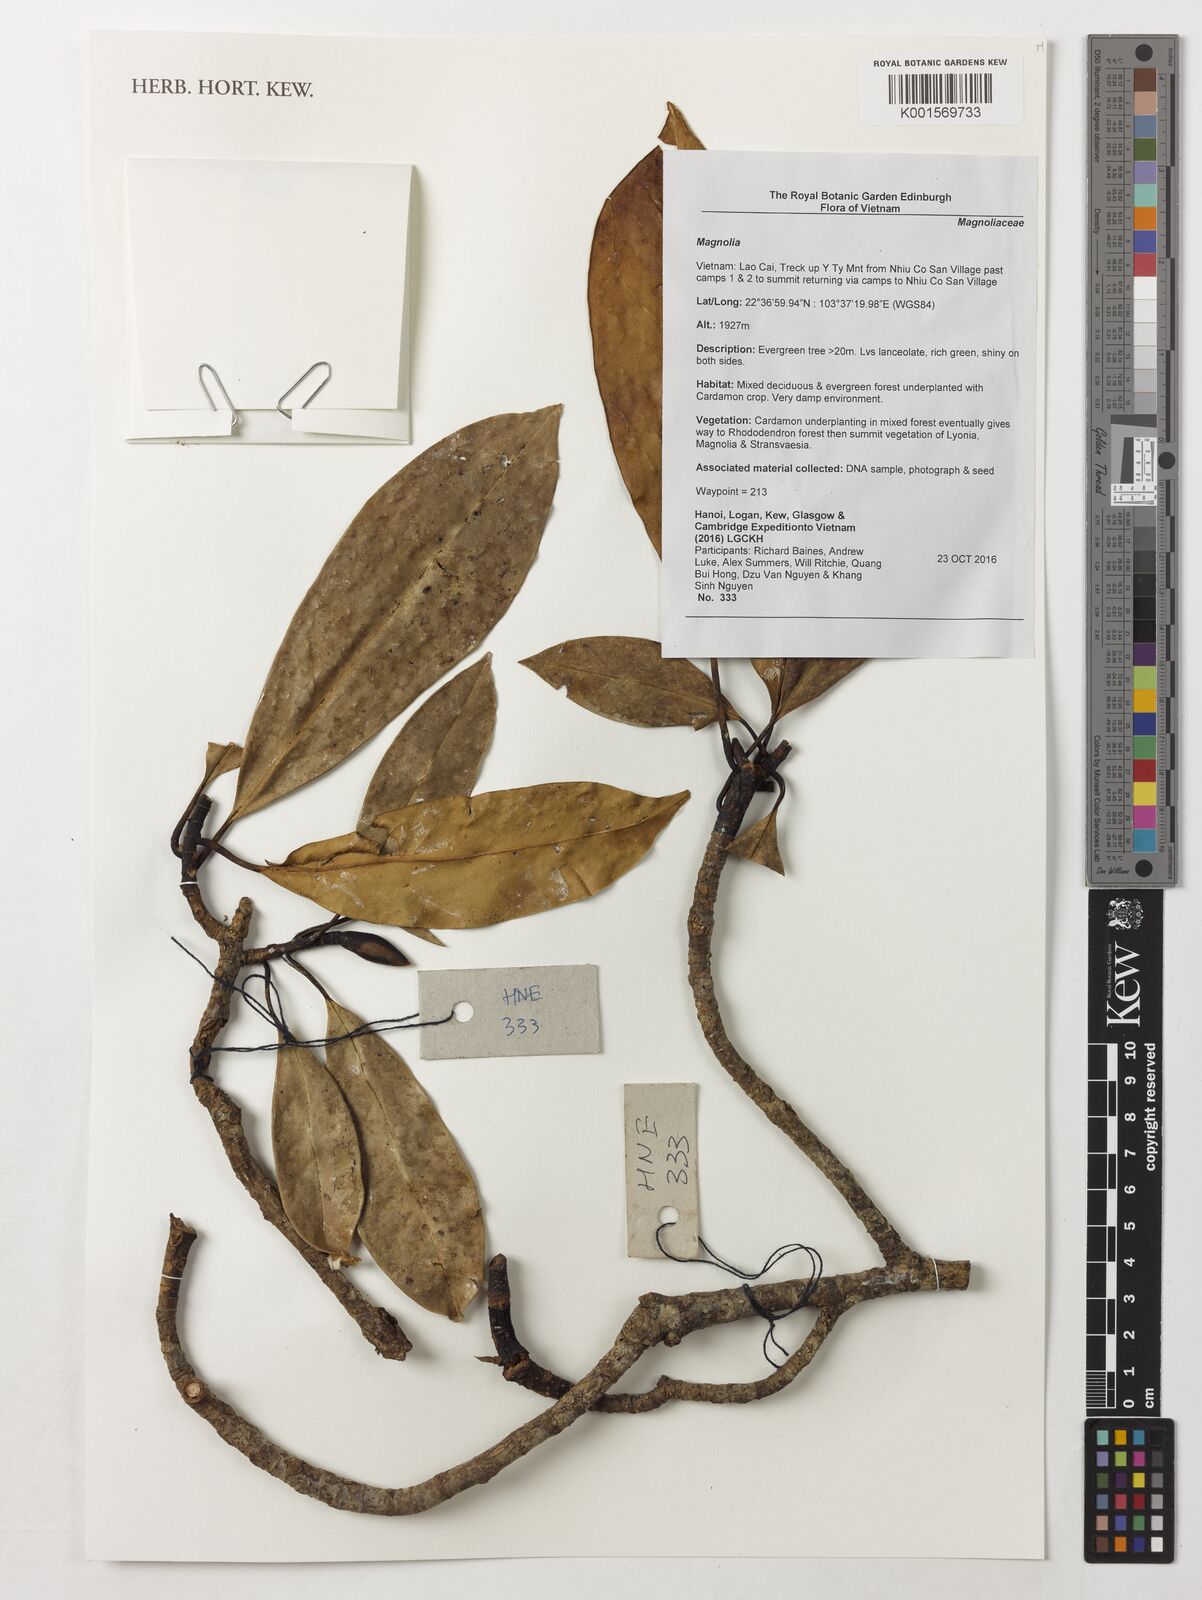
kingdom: Plantae
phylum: Tracheophyta
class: Magnoliopsida
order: Magnoliales
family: Magnoliaceae
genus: Magnolia
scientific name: Magnolia
